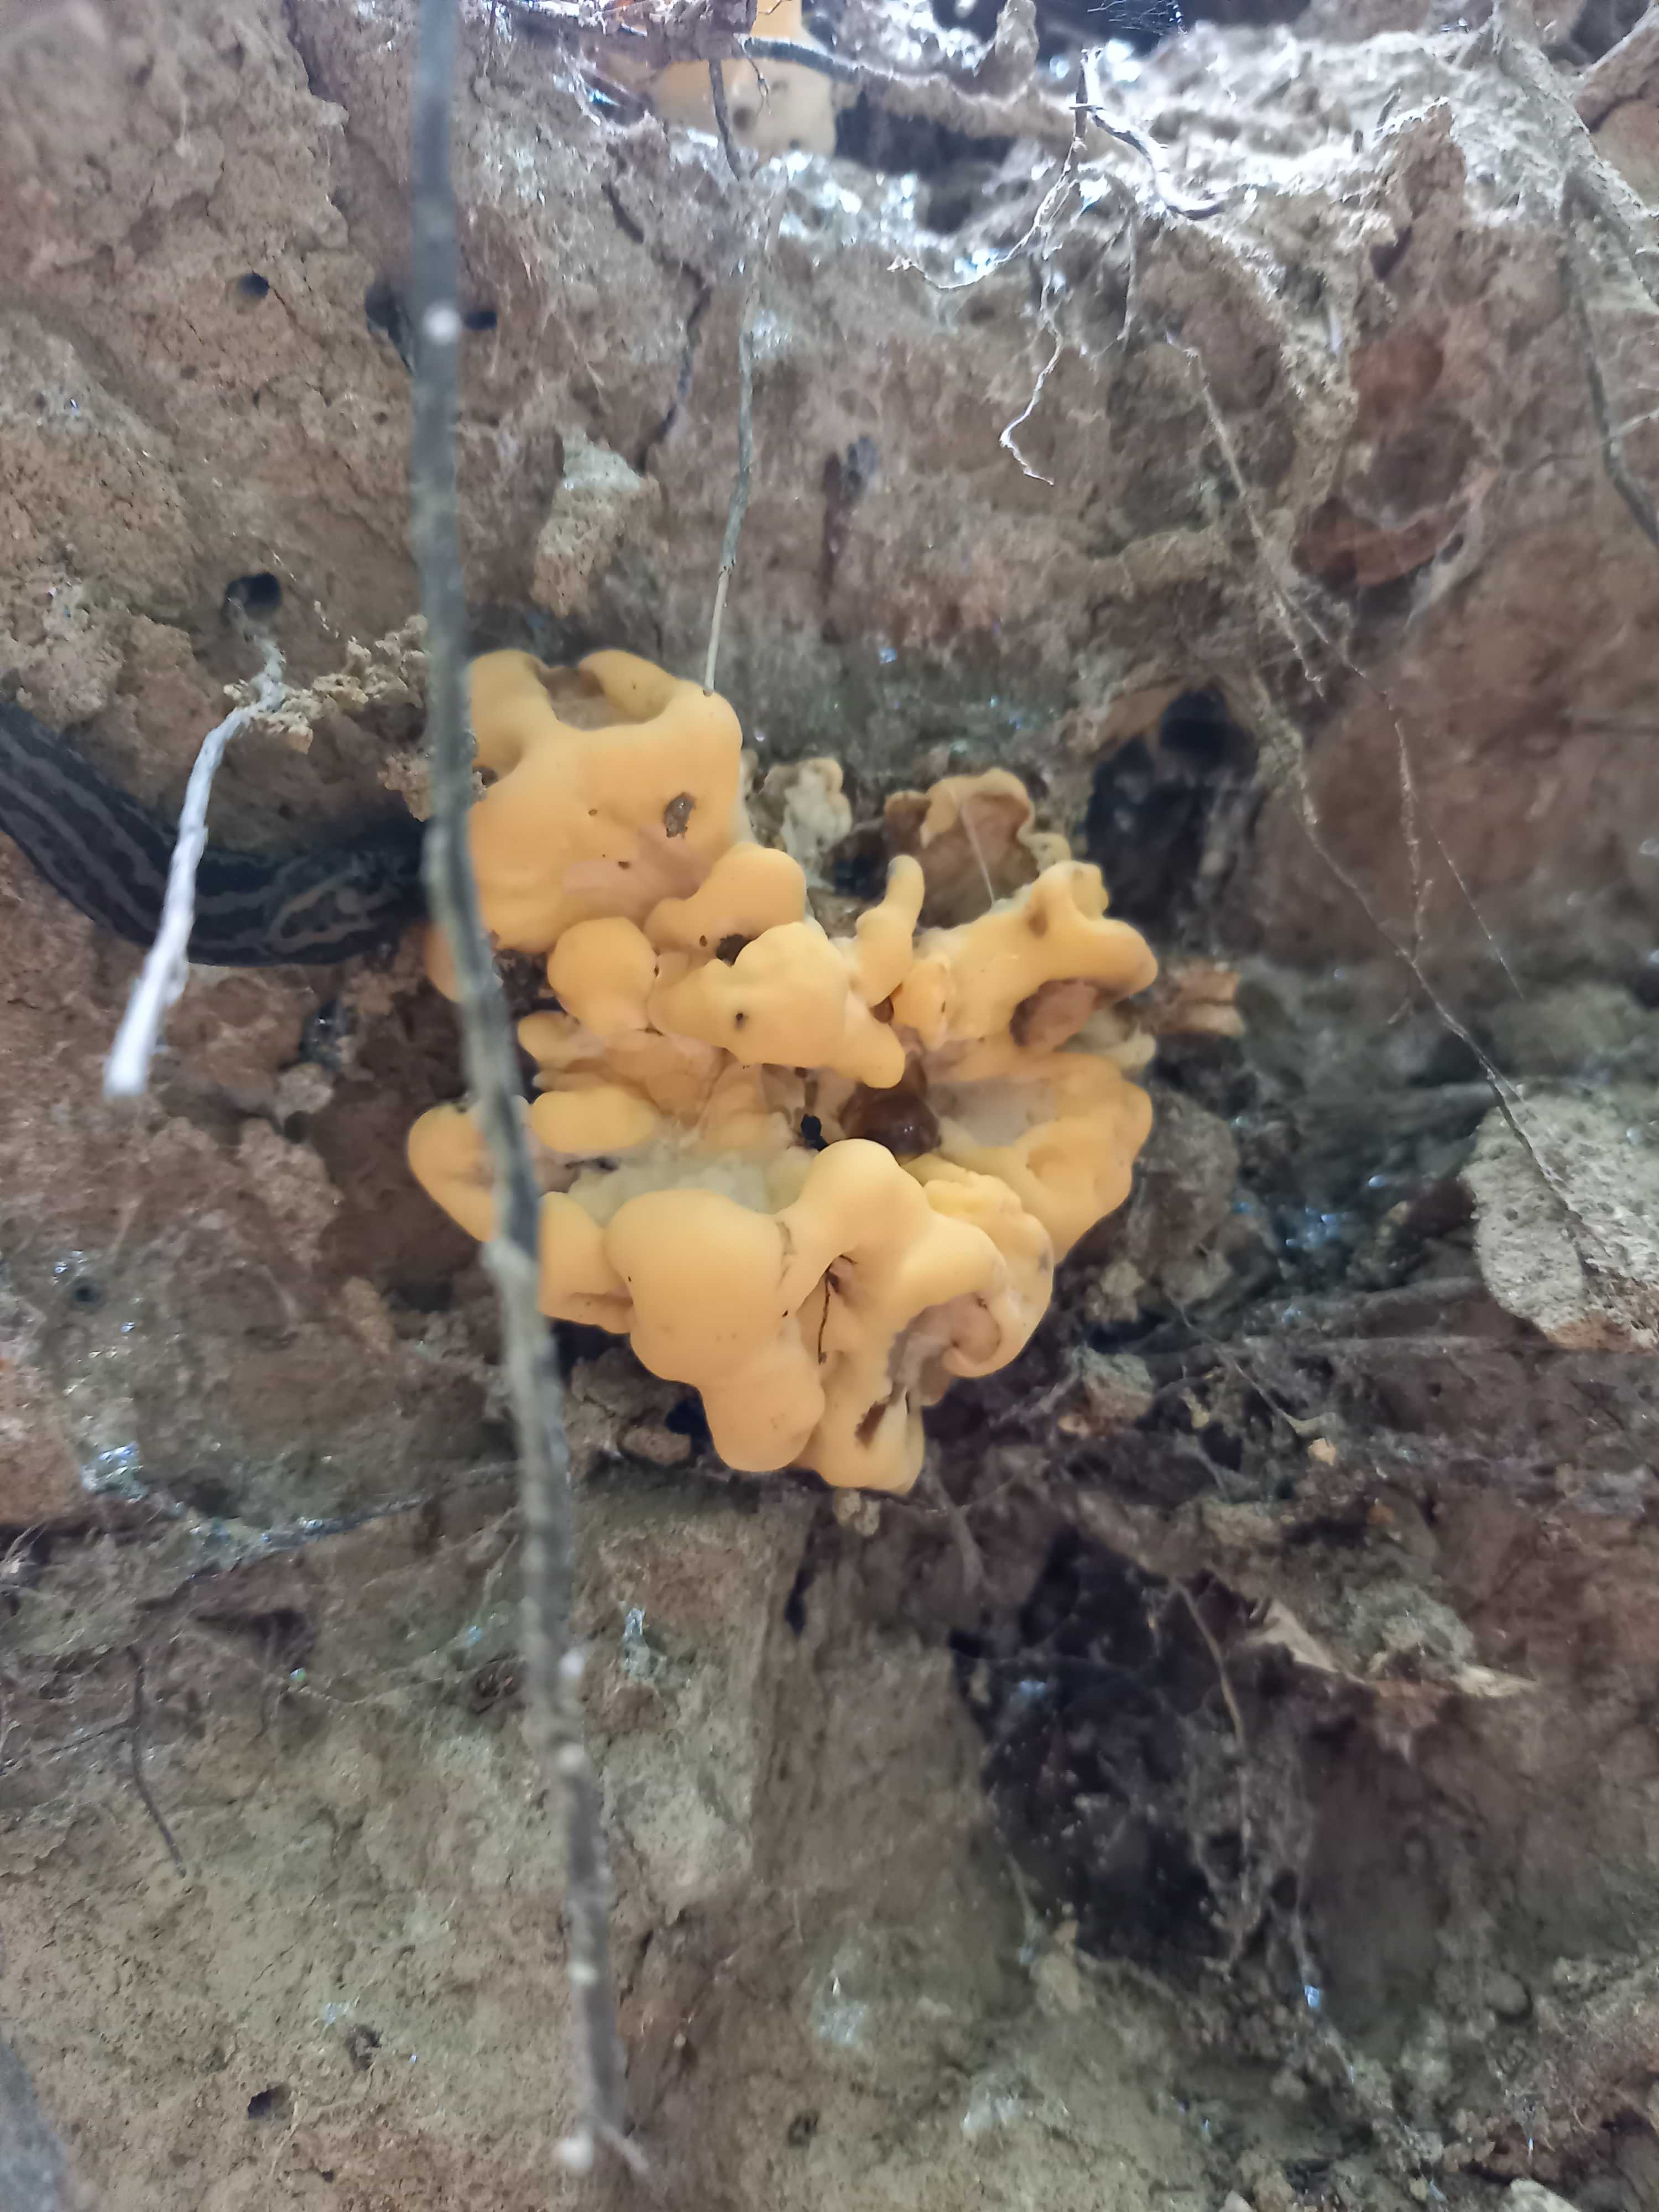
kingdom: Fungi
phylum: Basidiomycota
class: Agaricomycetes
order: Polyporales
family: Meripilaceae
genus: Meripilus
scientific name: Meripilus giganteus
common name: kæmpeporesvamp
